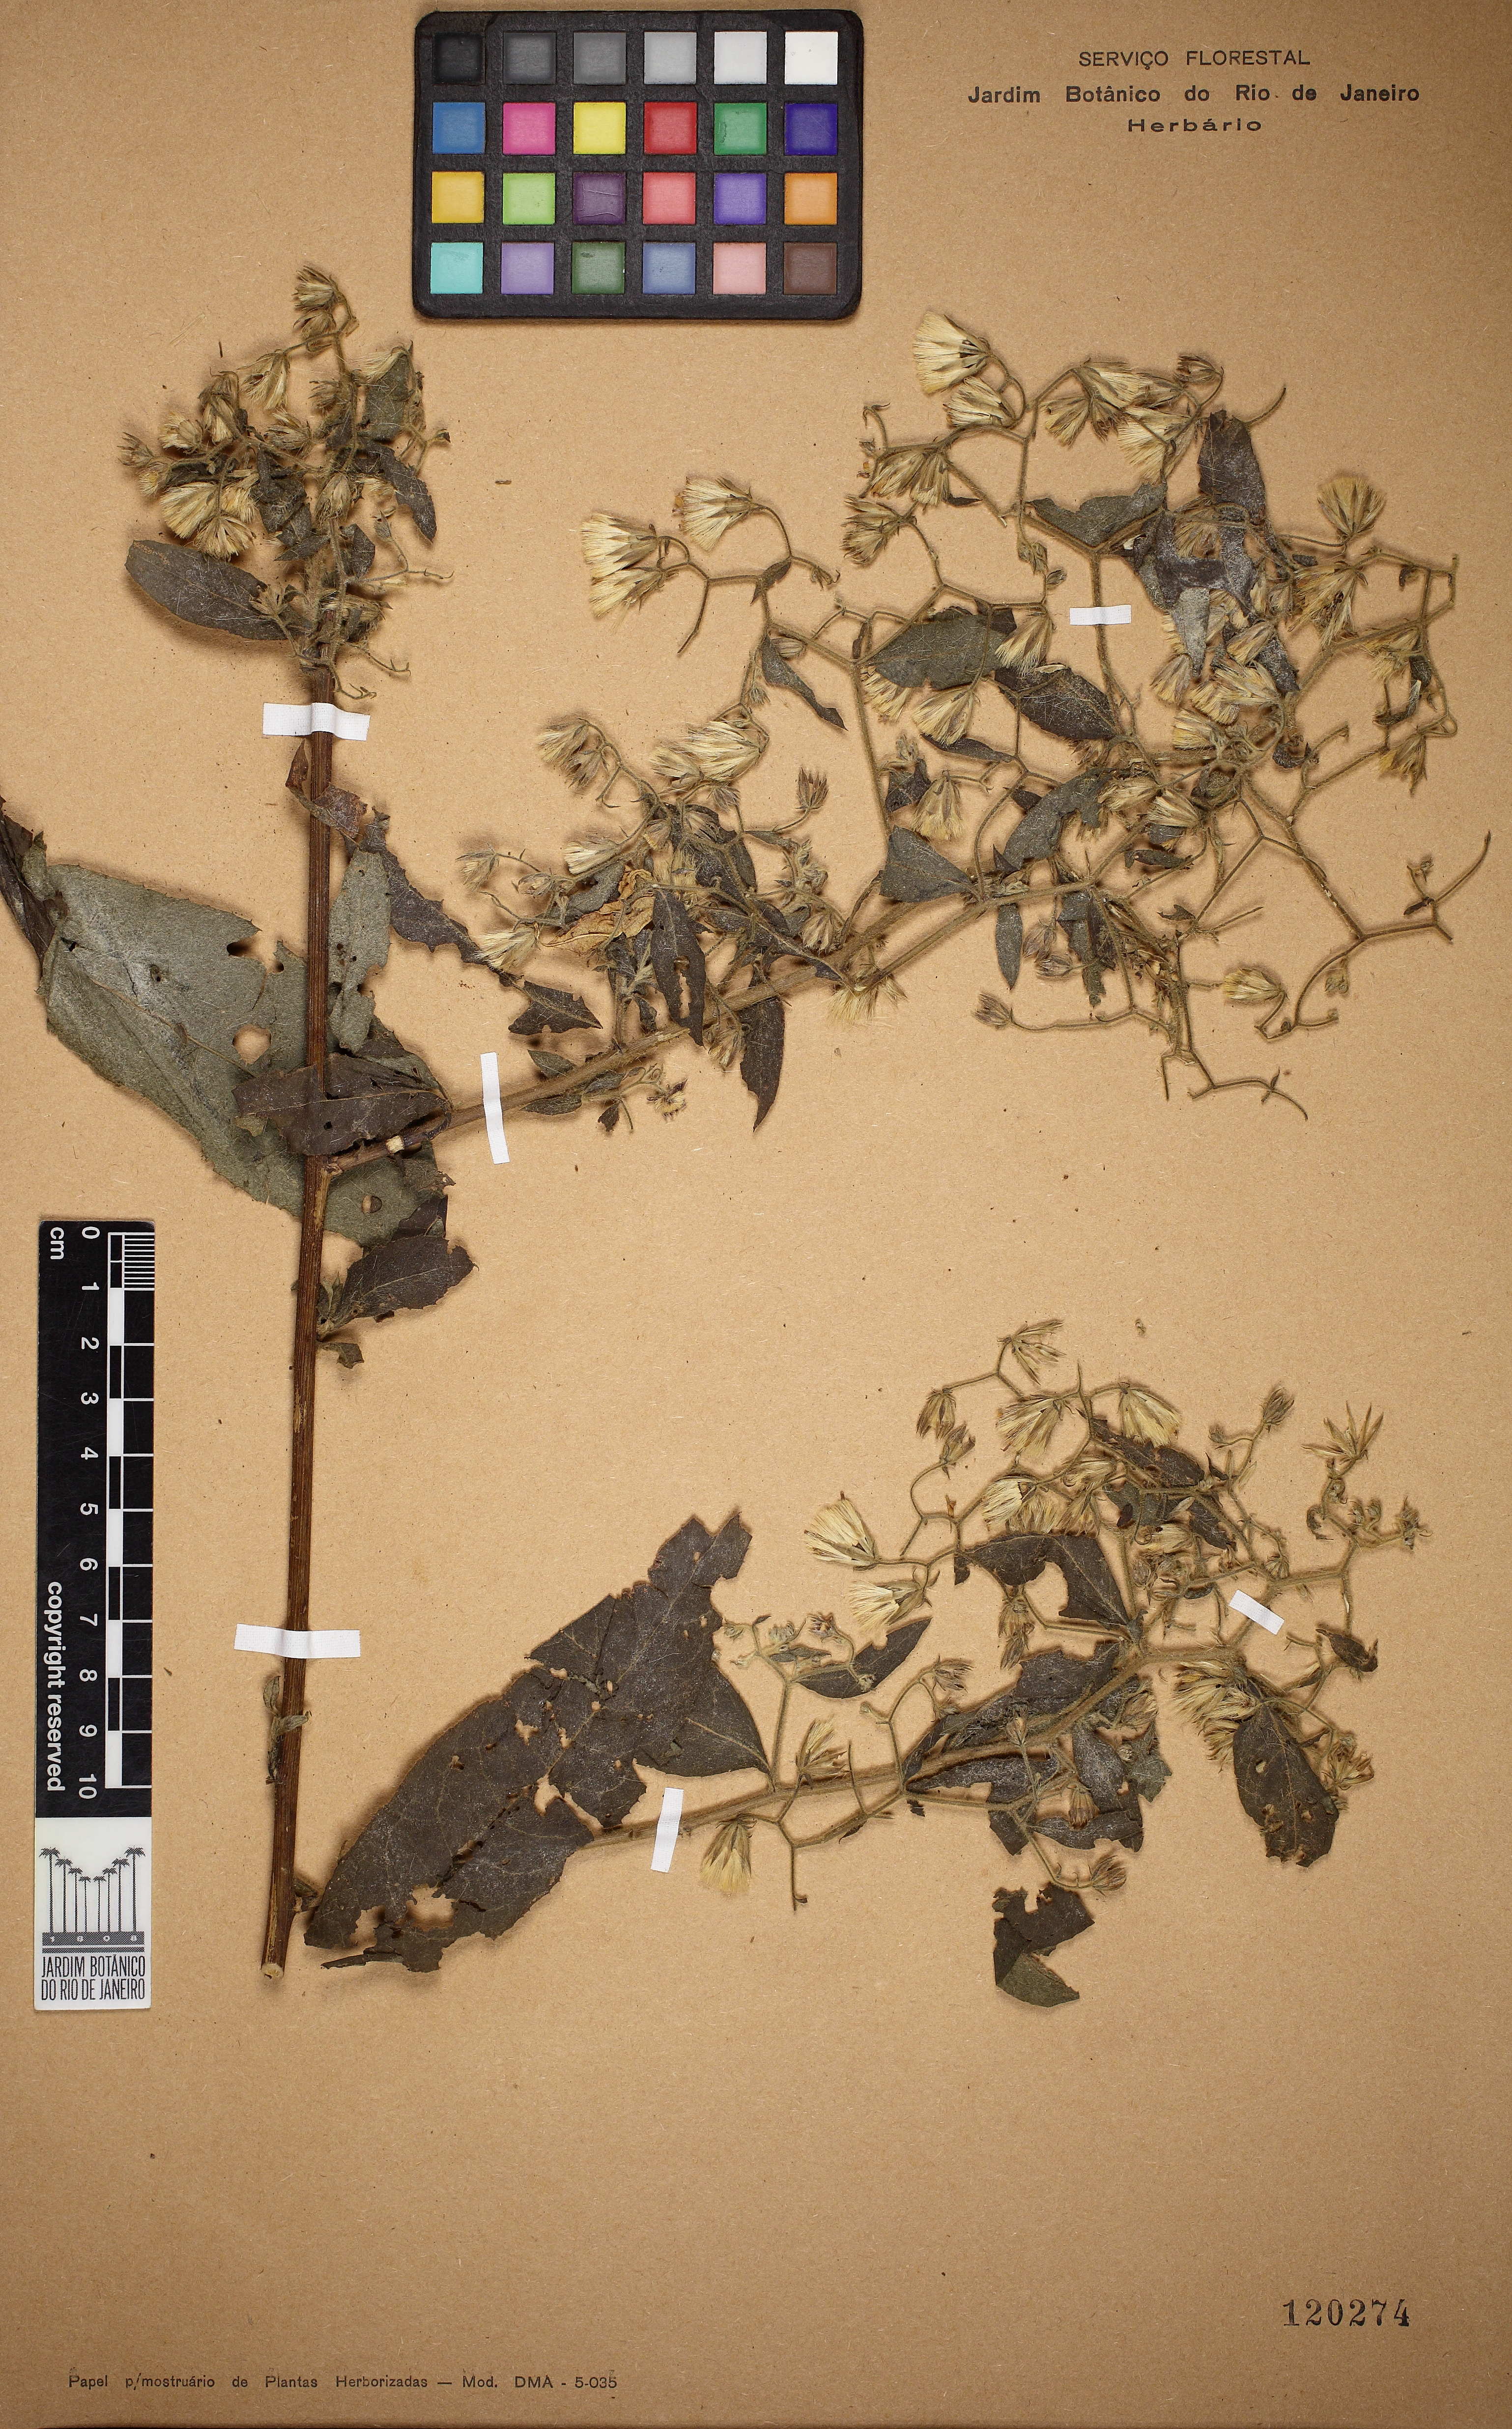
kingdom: Plantae
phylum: Tracheophyta
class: Magnoliopsida
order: Asterales
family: Asteraceae
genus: Trixis
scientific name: Trixis divaricata
